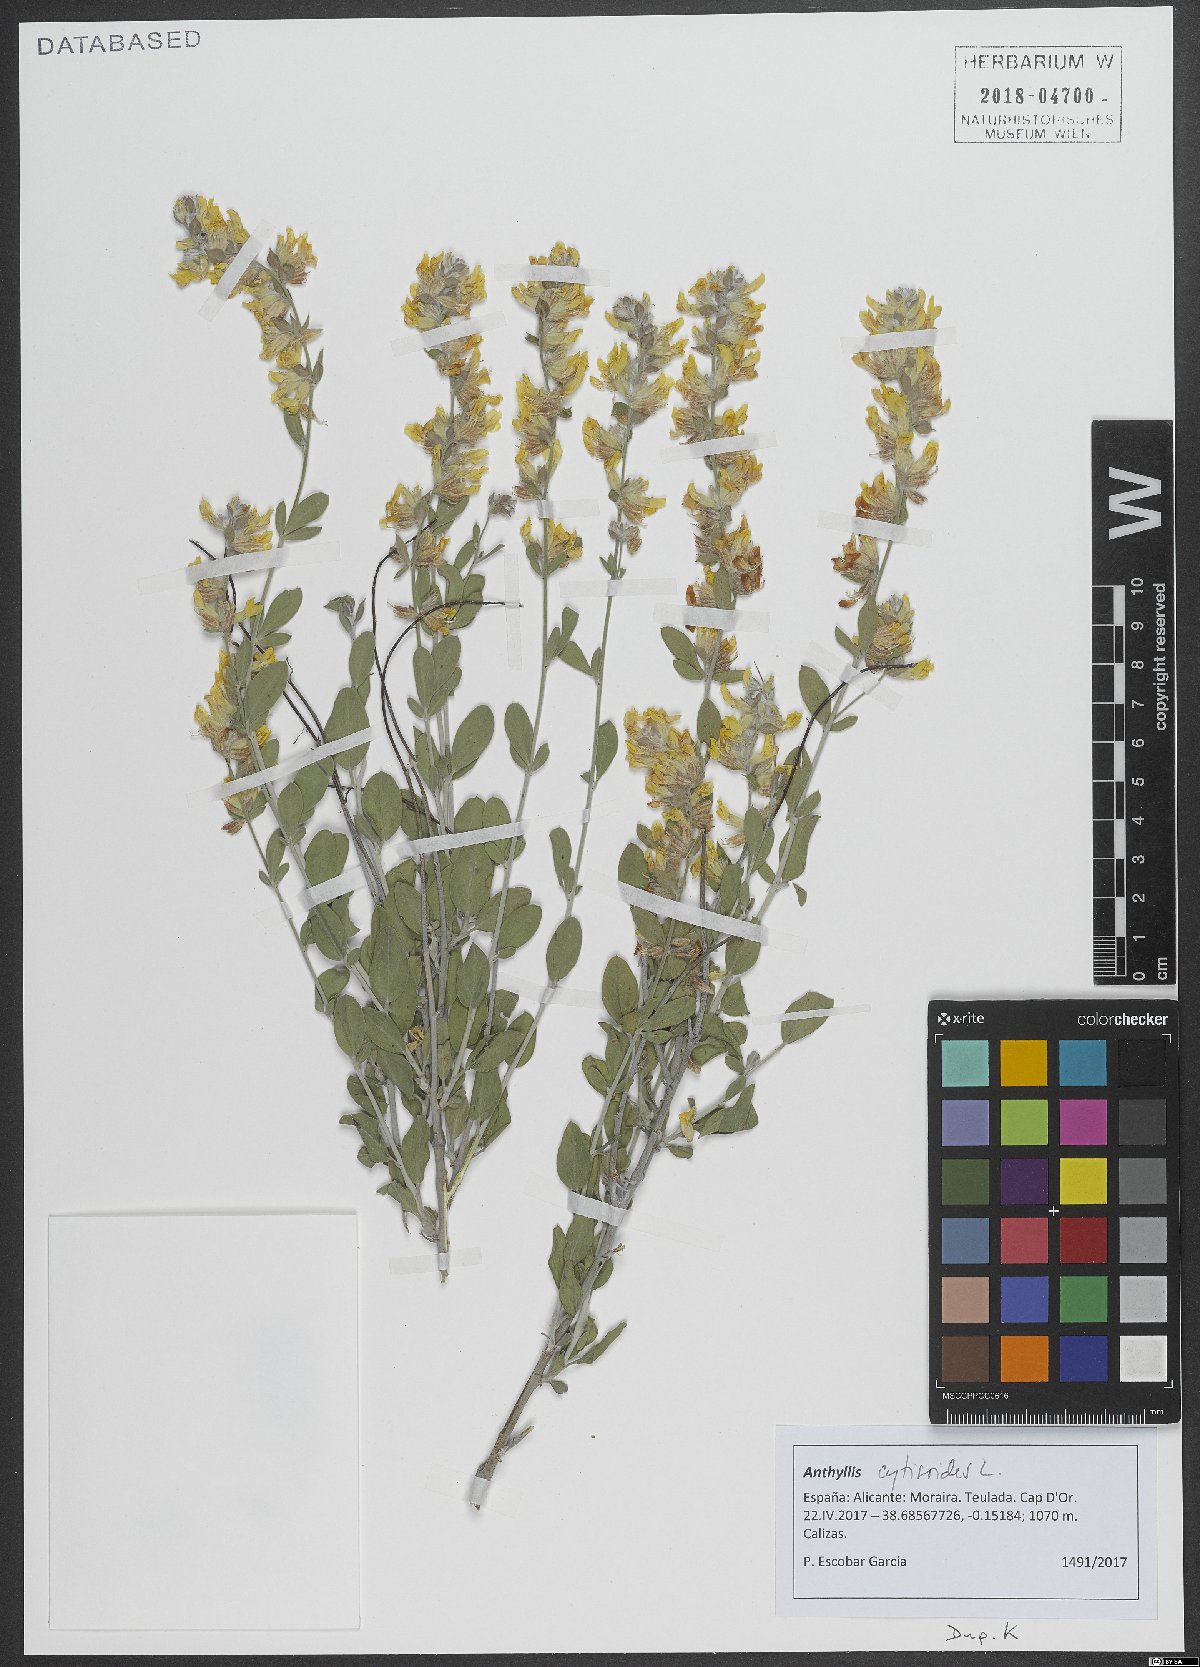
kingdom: Plantae
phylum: Tracheophyta
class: Magnoliopsida
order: Fabales
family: Fabaceae
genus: Anthyllis
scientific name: Anthyllis cytisoides
